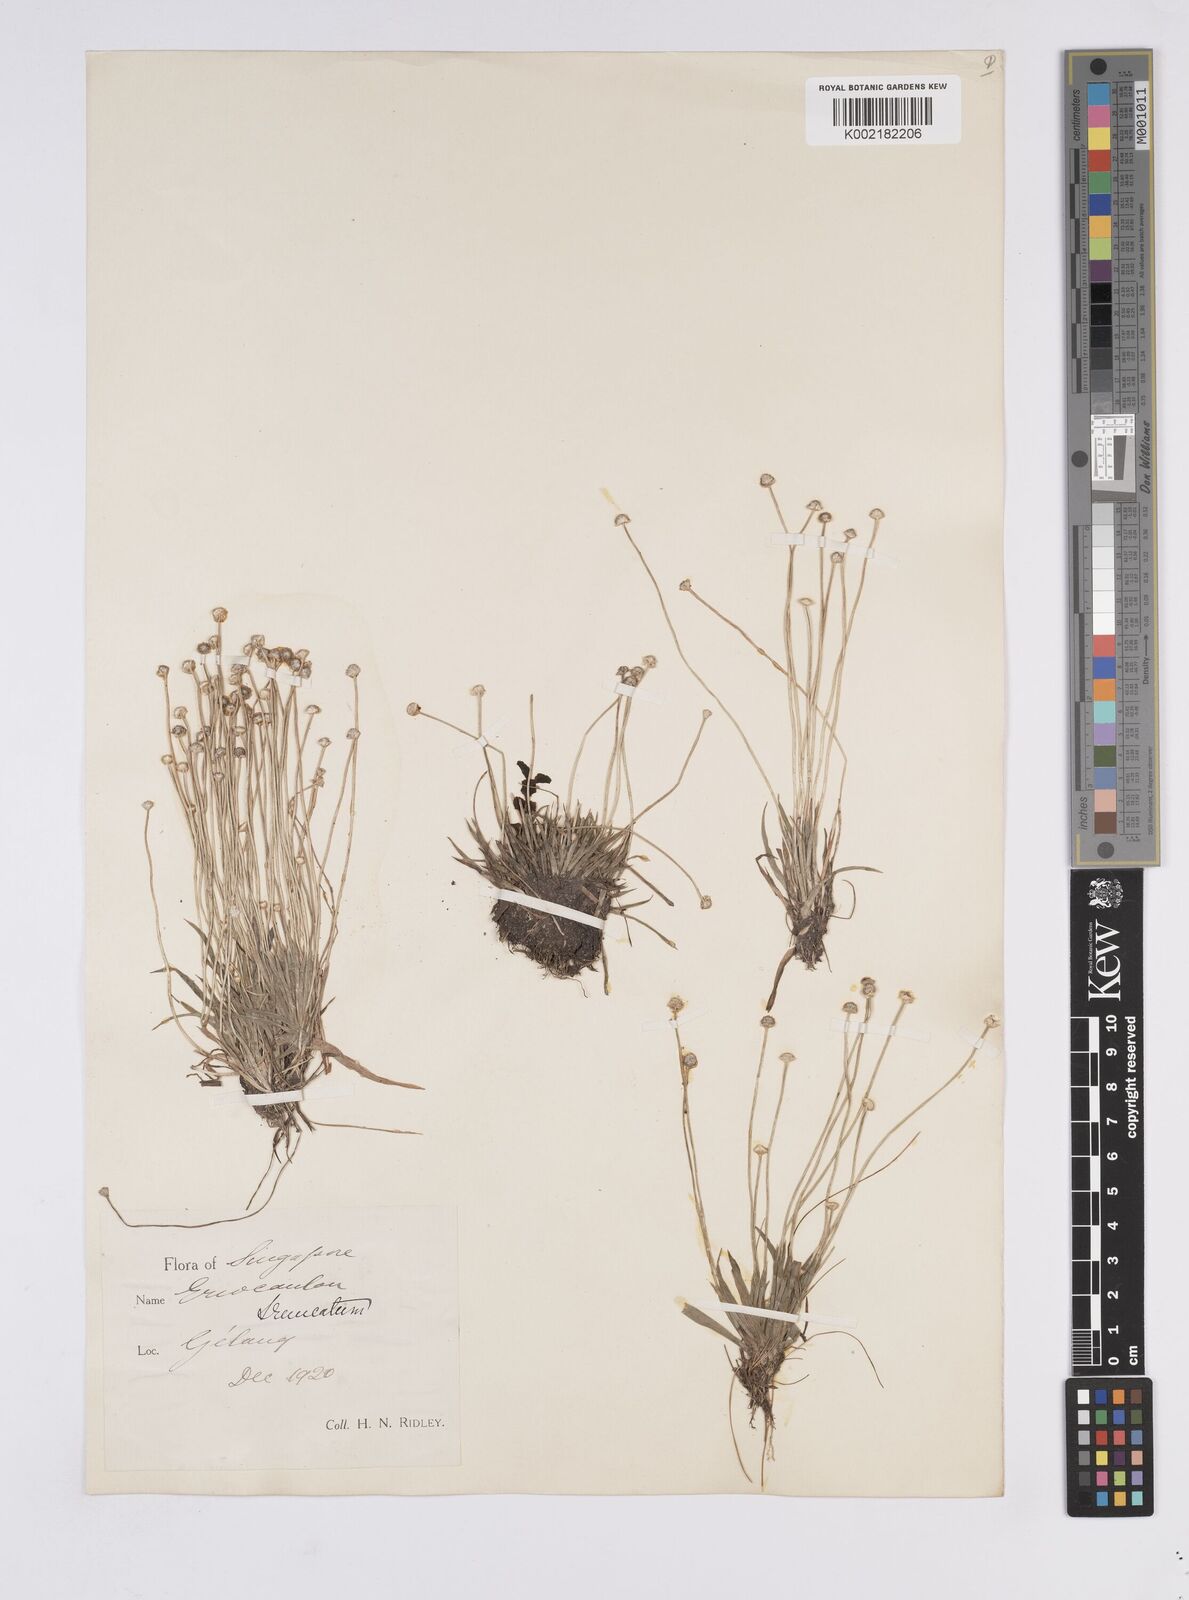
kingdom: Plantae
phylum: Tracheophyta
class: Liliopsida
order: Poales
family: Eriocaulaceae
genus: Eriocaulon
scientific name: Eriocaulon truncatum
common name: Short pipe-wort
